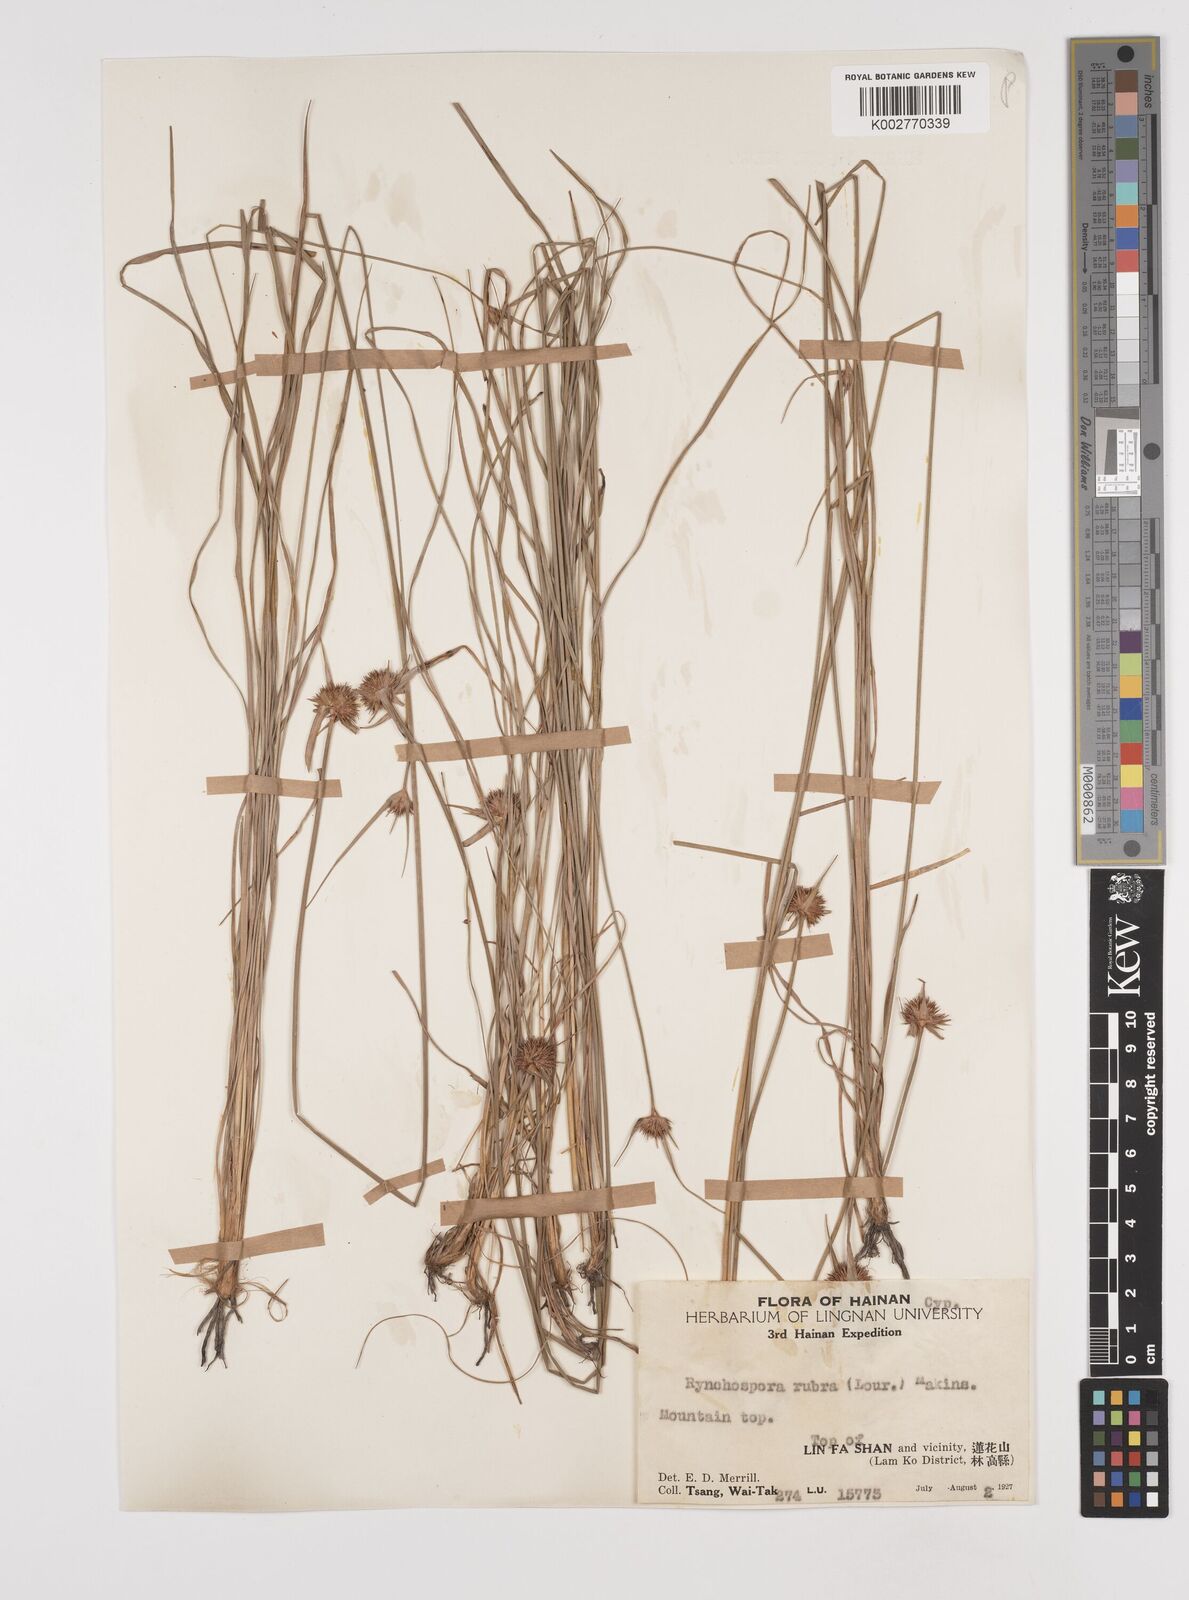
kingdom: Plantae
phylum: Tracheophyta
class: Liliopsida
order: Poales
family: Cyperaceae
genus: Rhynchospora
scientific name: Rhynchospora rubra
